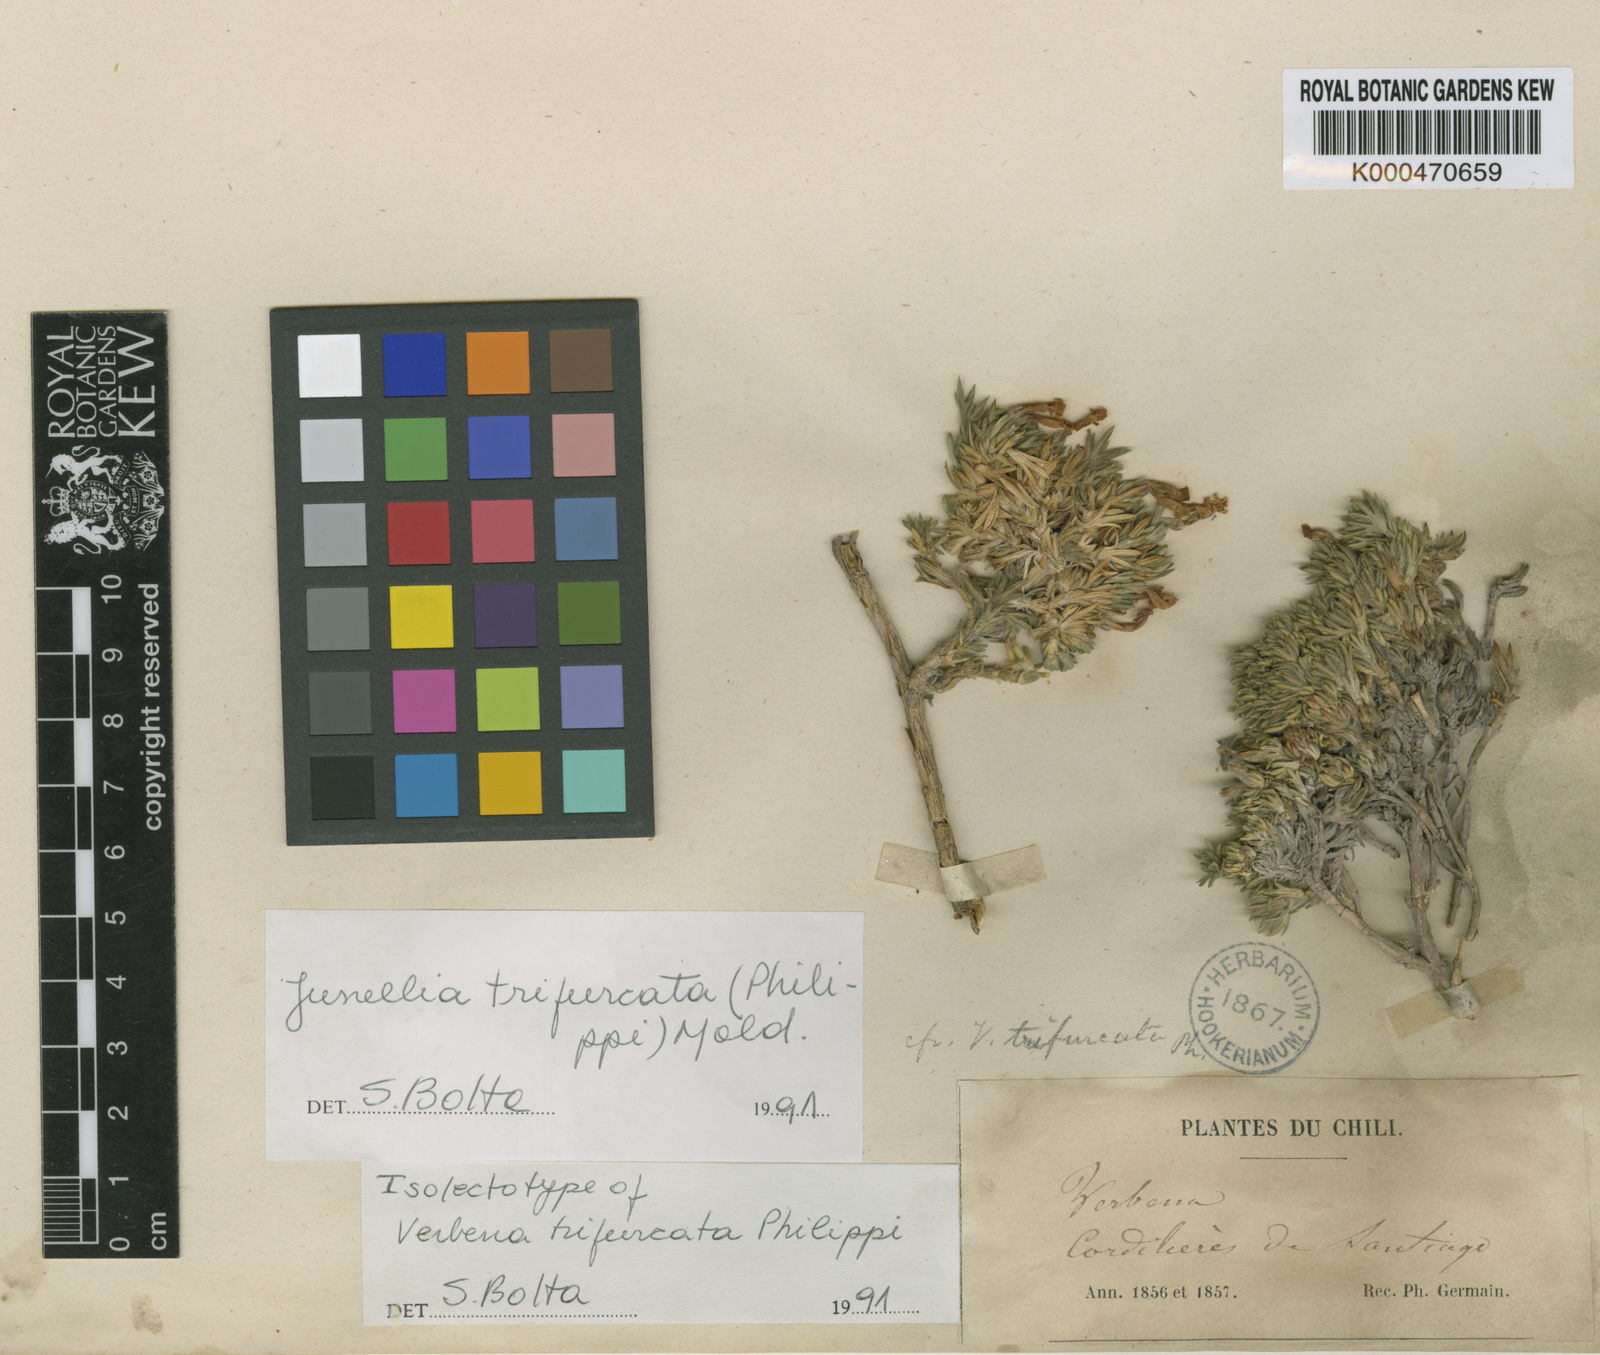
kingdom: Plantae
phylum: Tracheophyta
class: Magnoliopsida
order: Lamiales
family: Verbenaceae
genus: Junellia
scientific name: Junellia trifurcata
